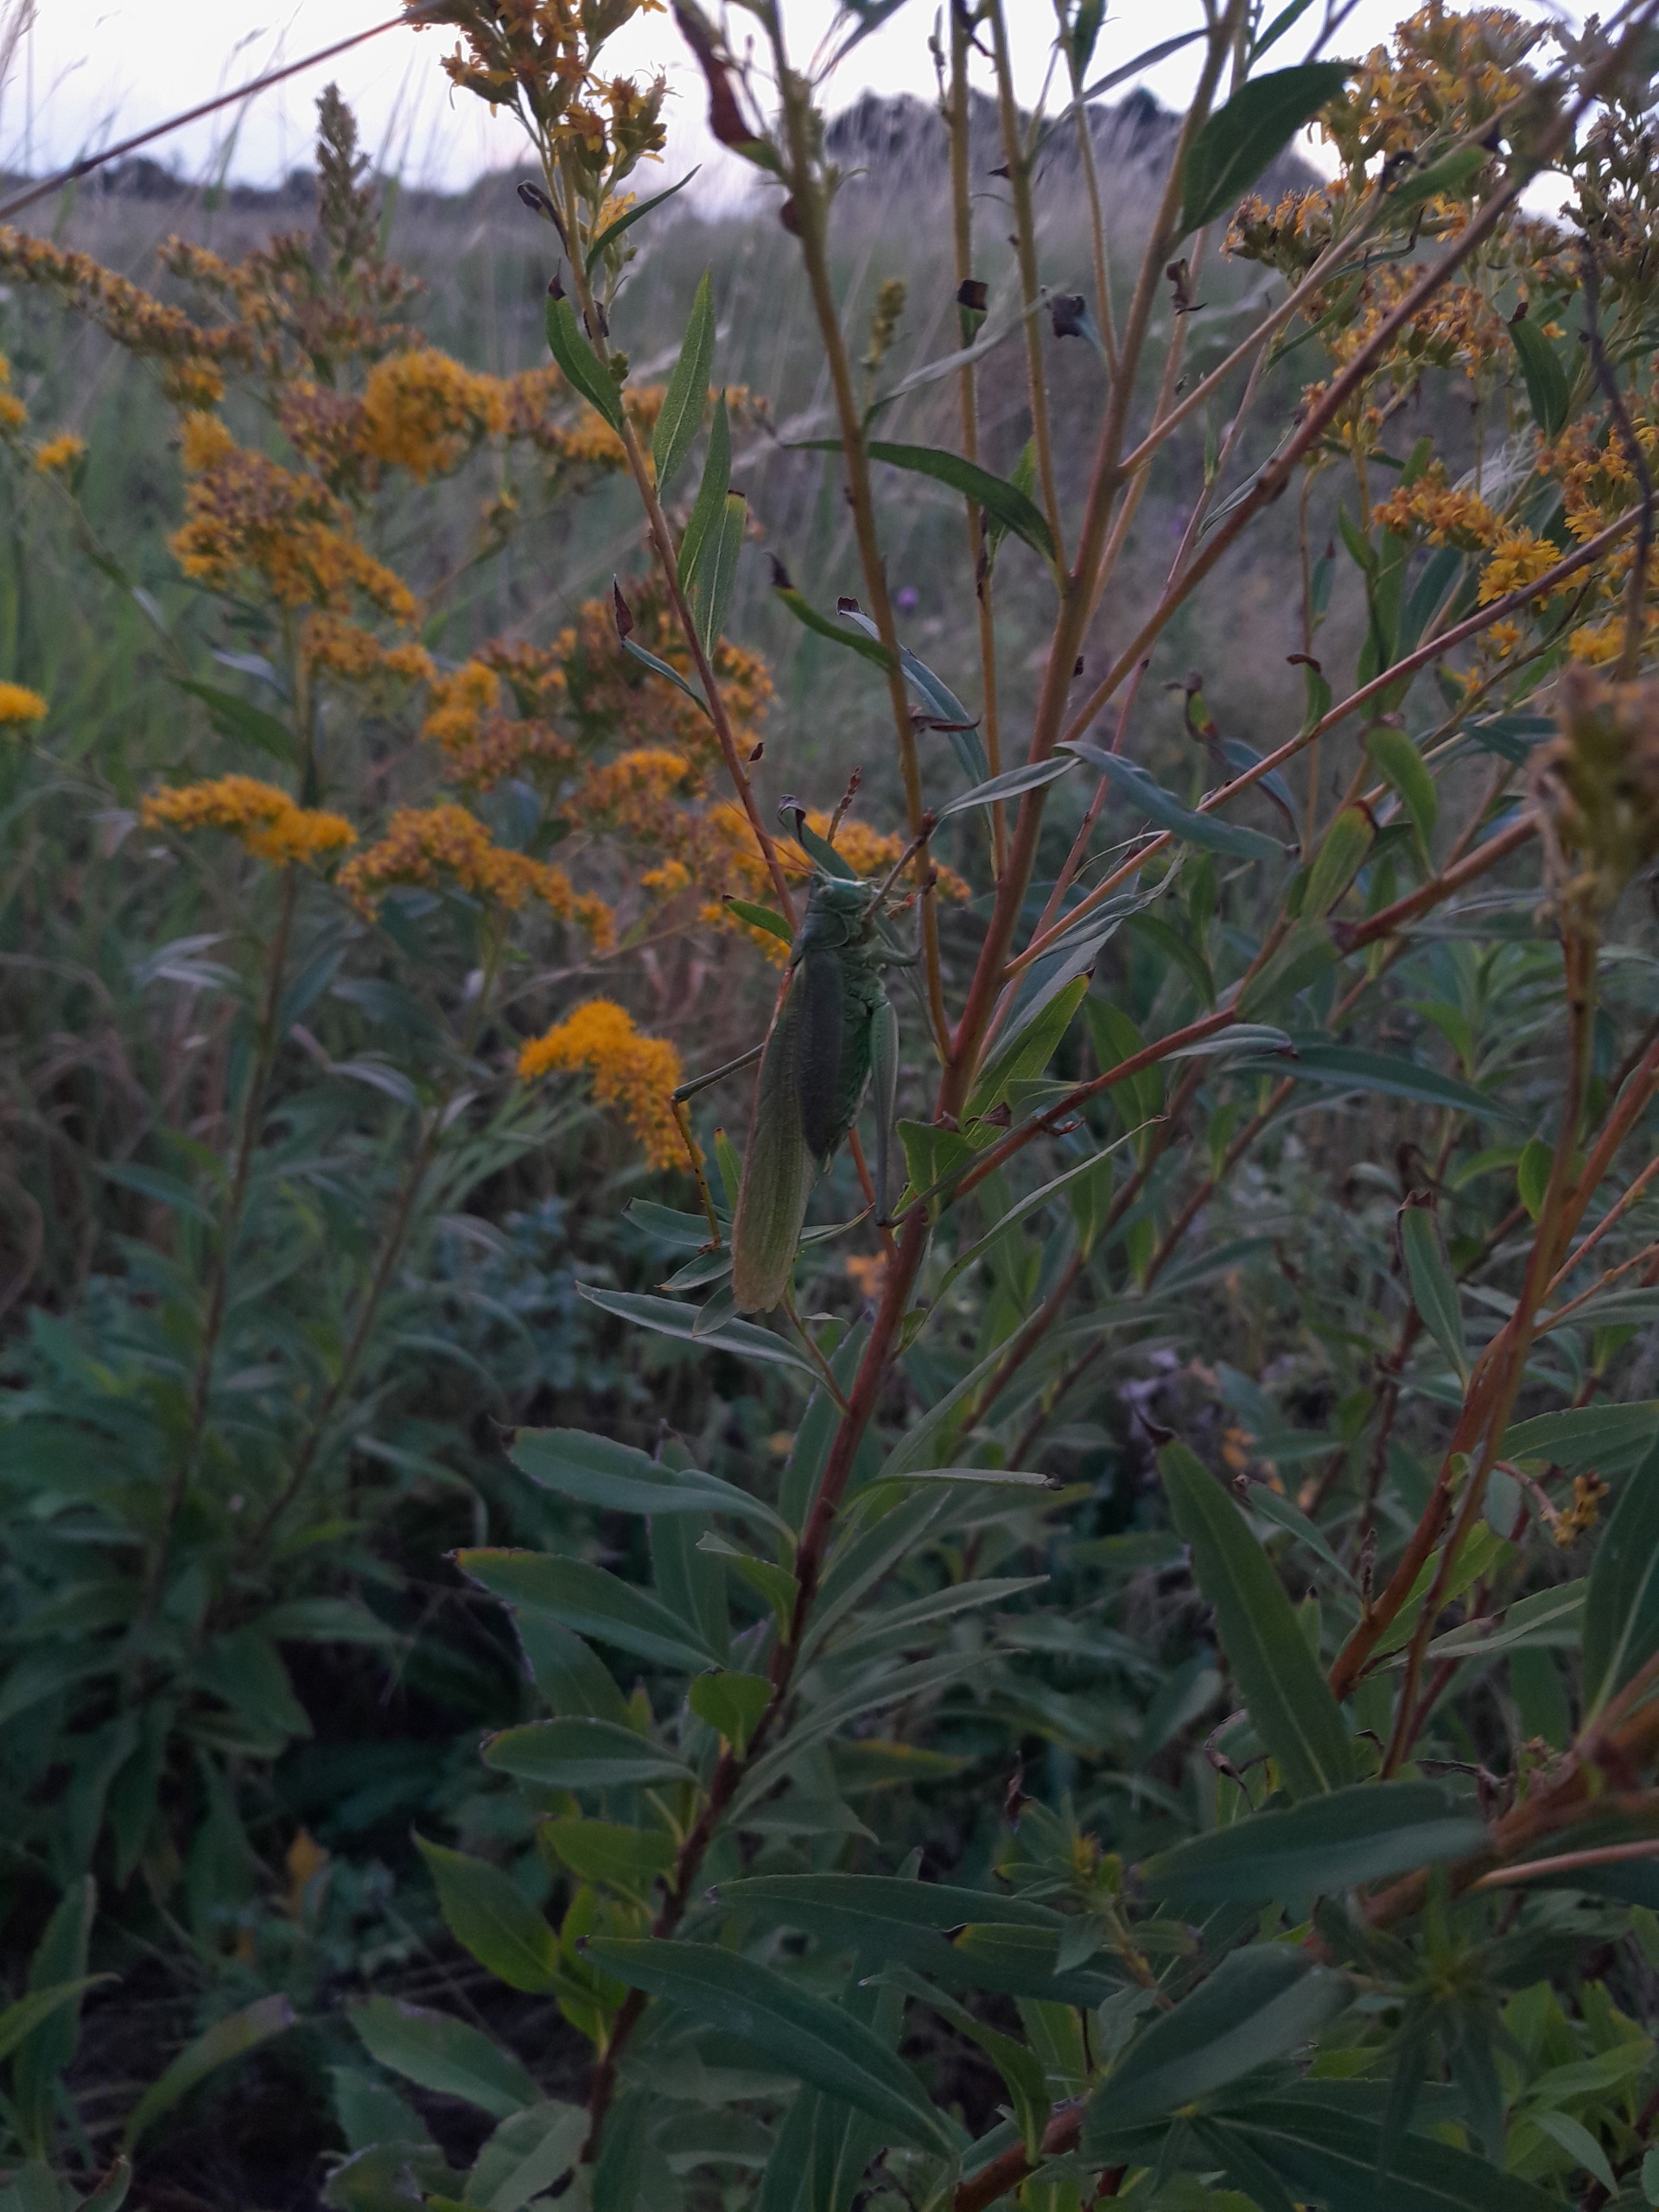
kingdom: Animalia
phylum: Arthropoda
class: Insecta
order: Orthoptera
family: Tettigoniidae
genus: Tettigonia
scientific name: Tettigonia viridissima
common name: Stor grøn løvgræshoppe
